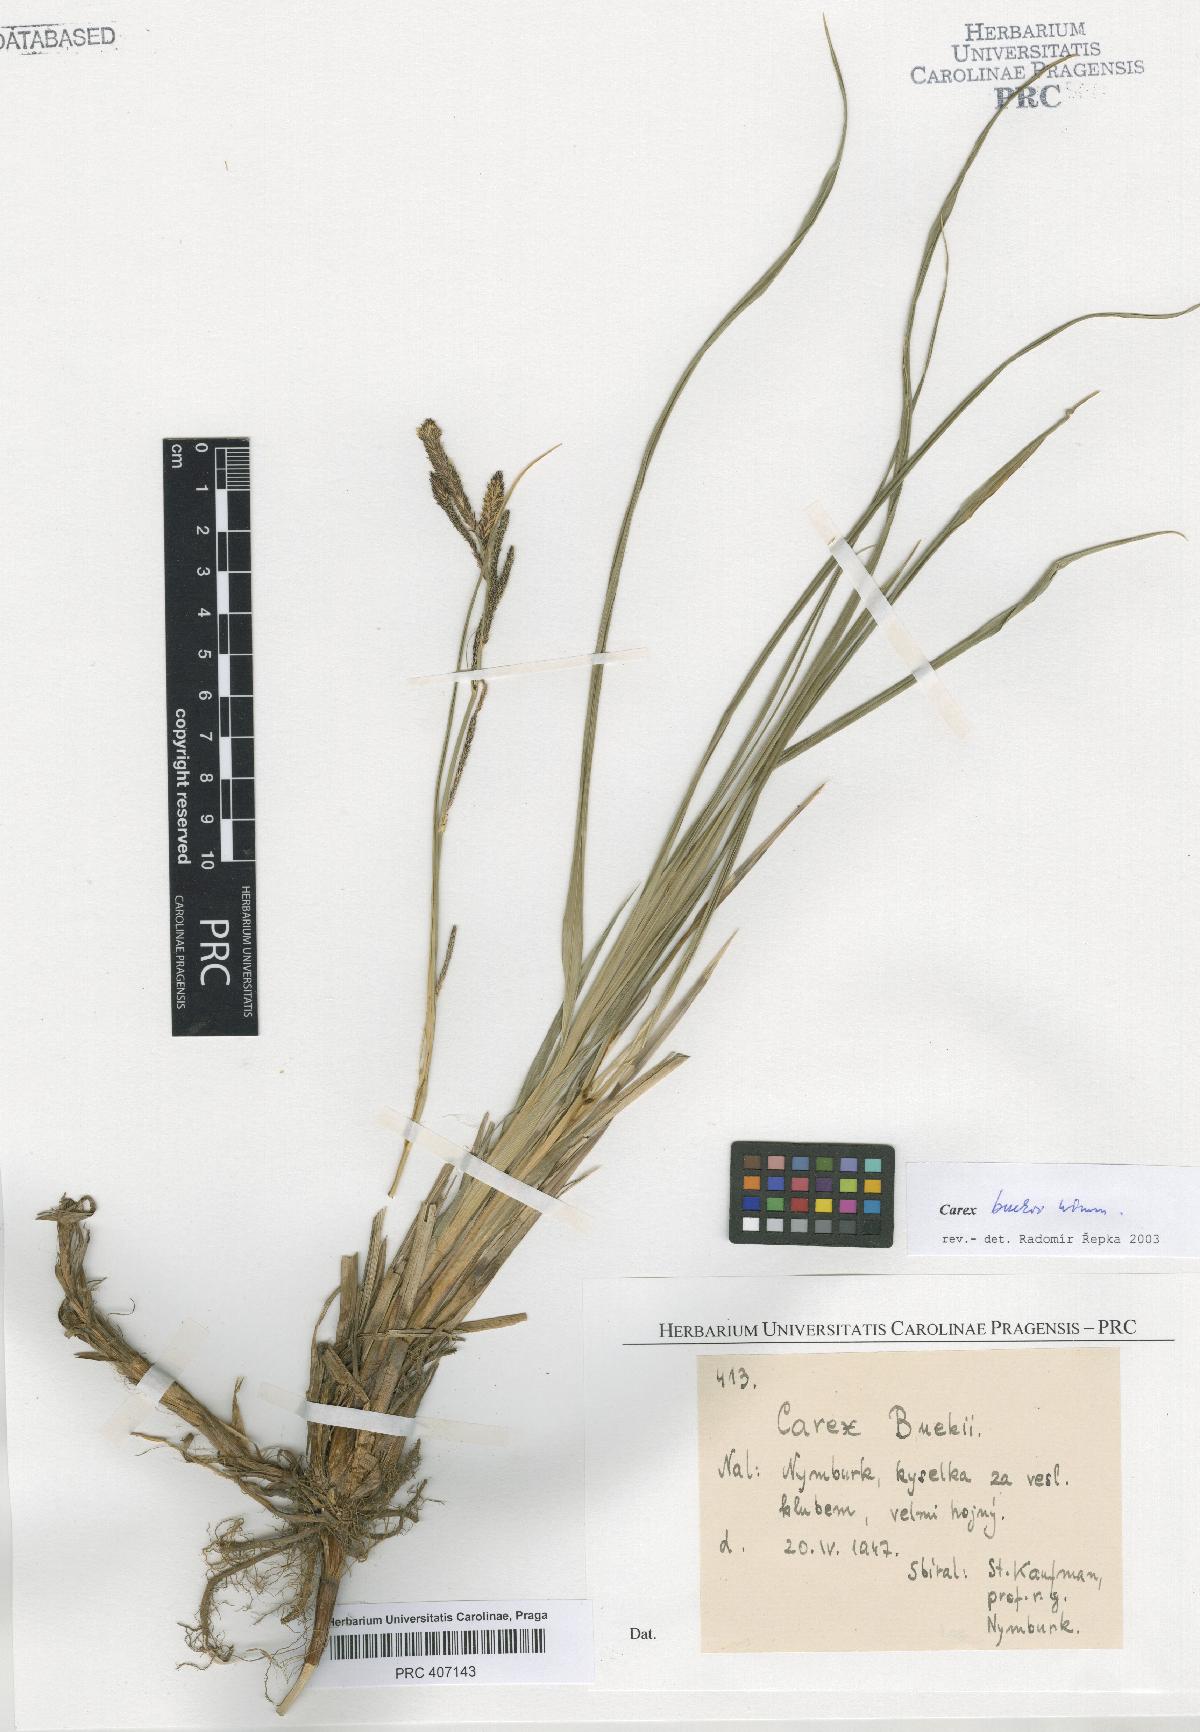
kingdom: Plantae
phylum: Tracheophyta
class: Liliopsida
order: Poales
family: Cyperaceae
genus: Carex
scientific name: Carex buekii
